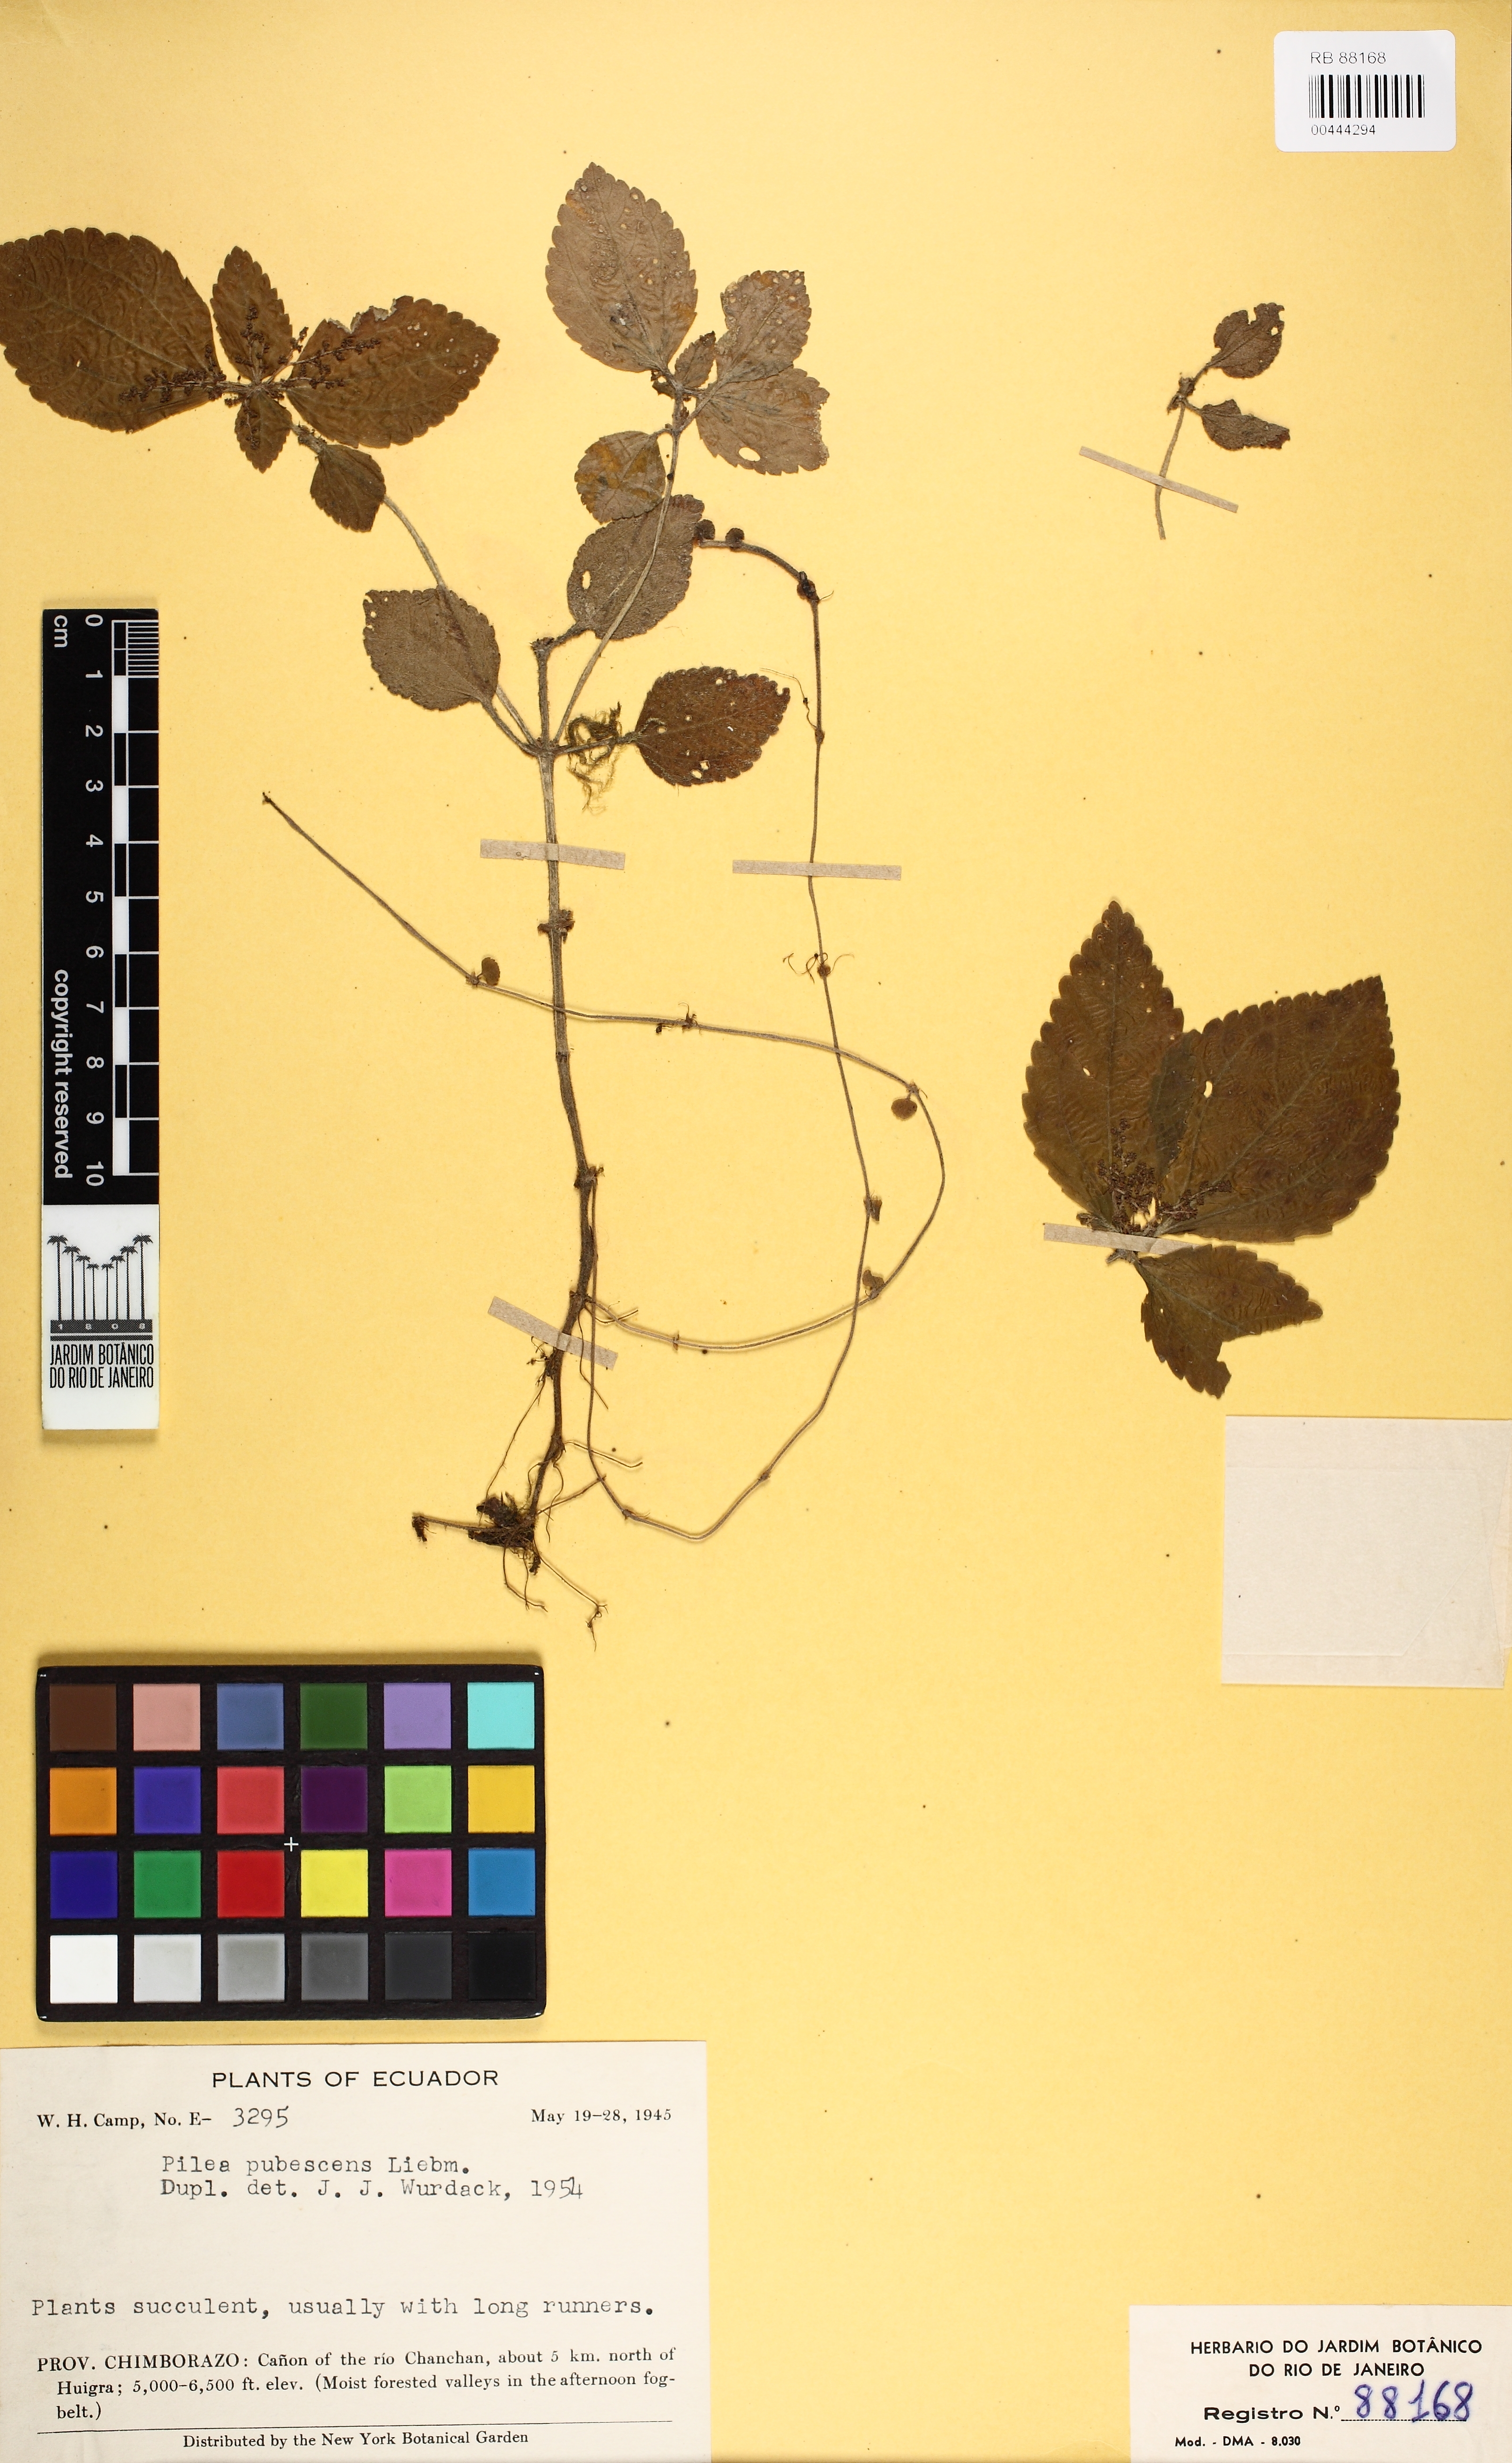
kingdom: Plantae
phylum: Tracheophyta
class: Magnoliopsida
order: Rosales
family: Urticaceae
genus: Pilea
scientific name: Pilea pubescens
